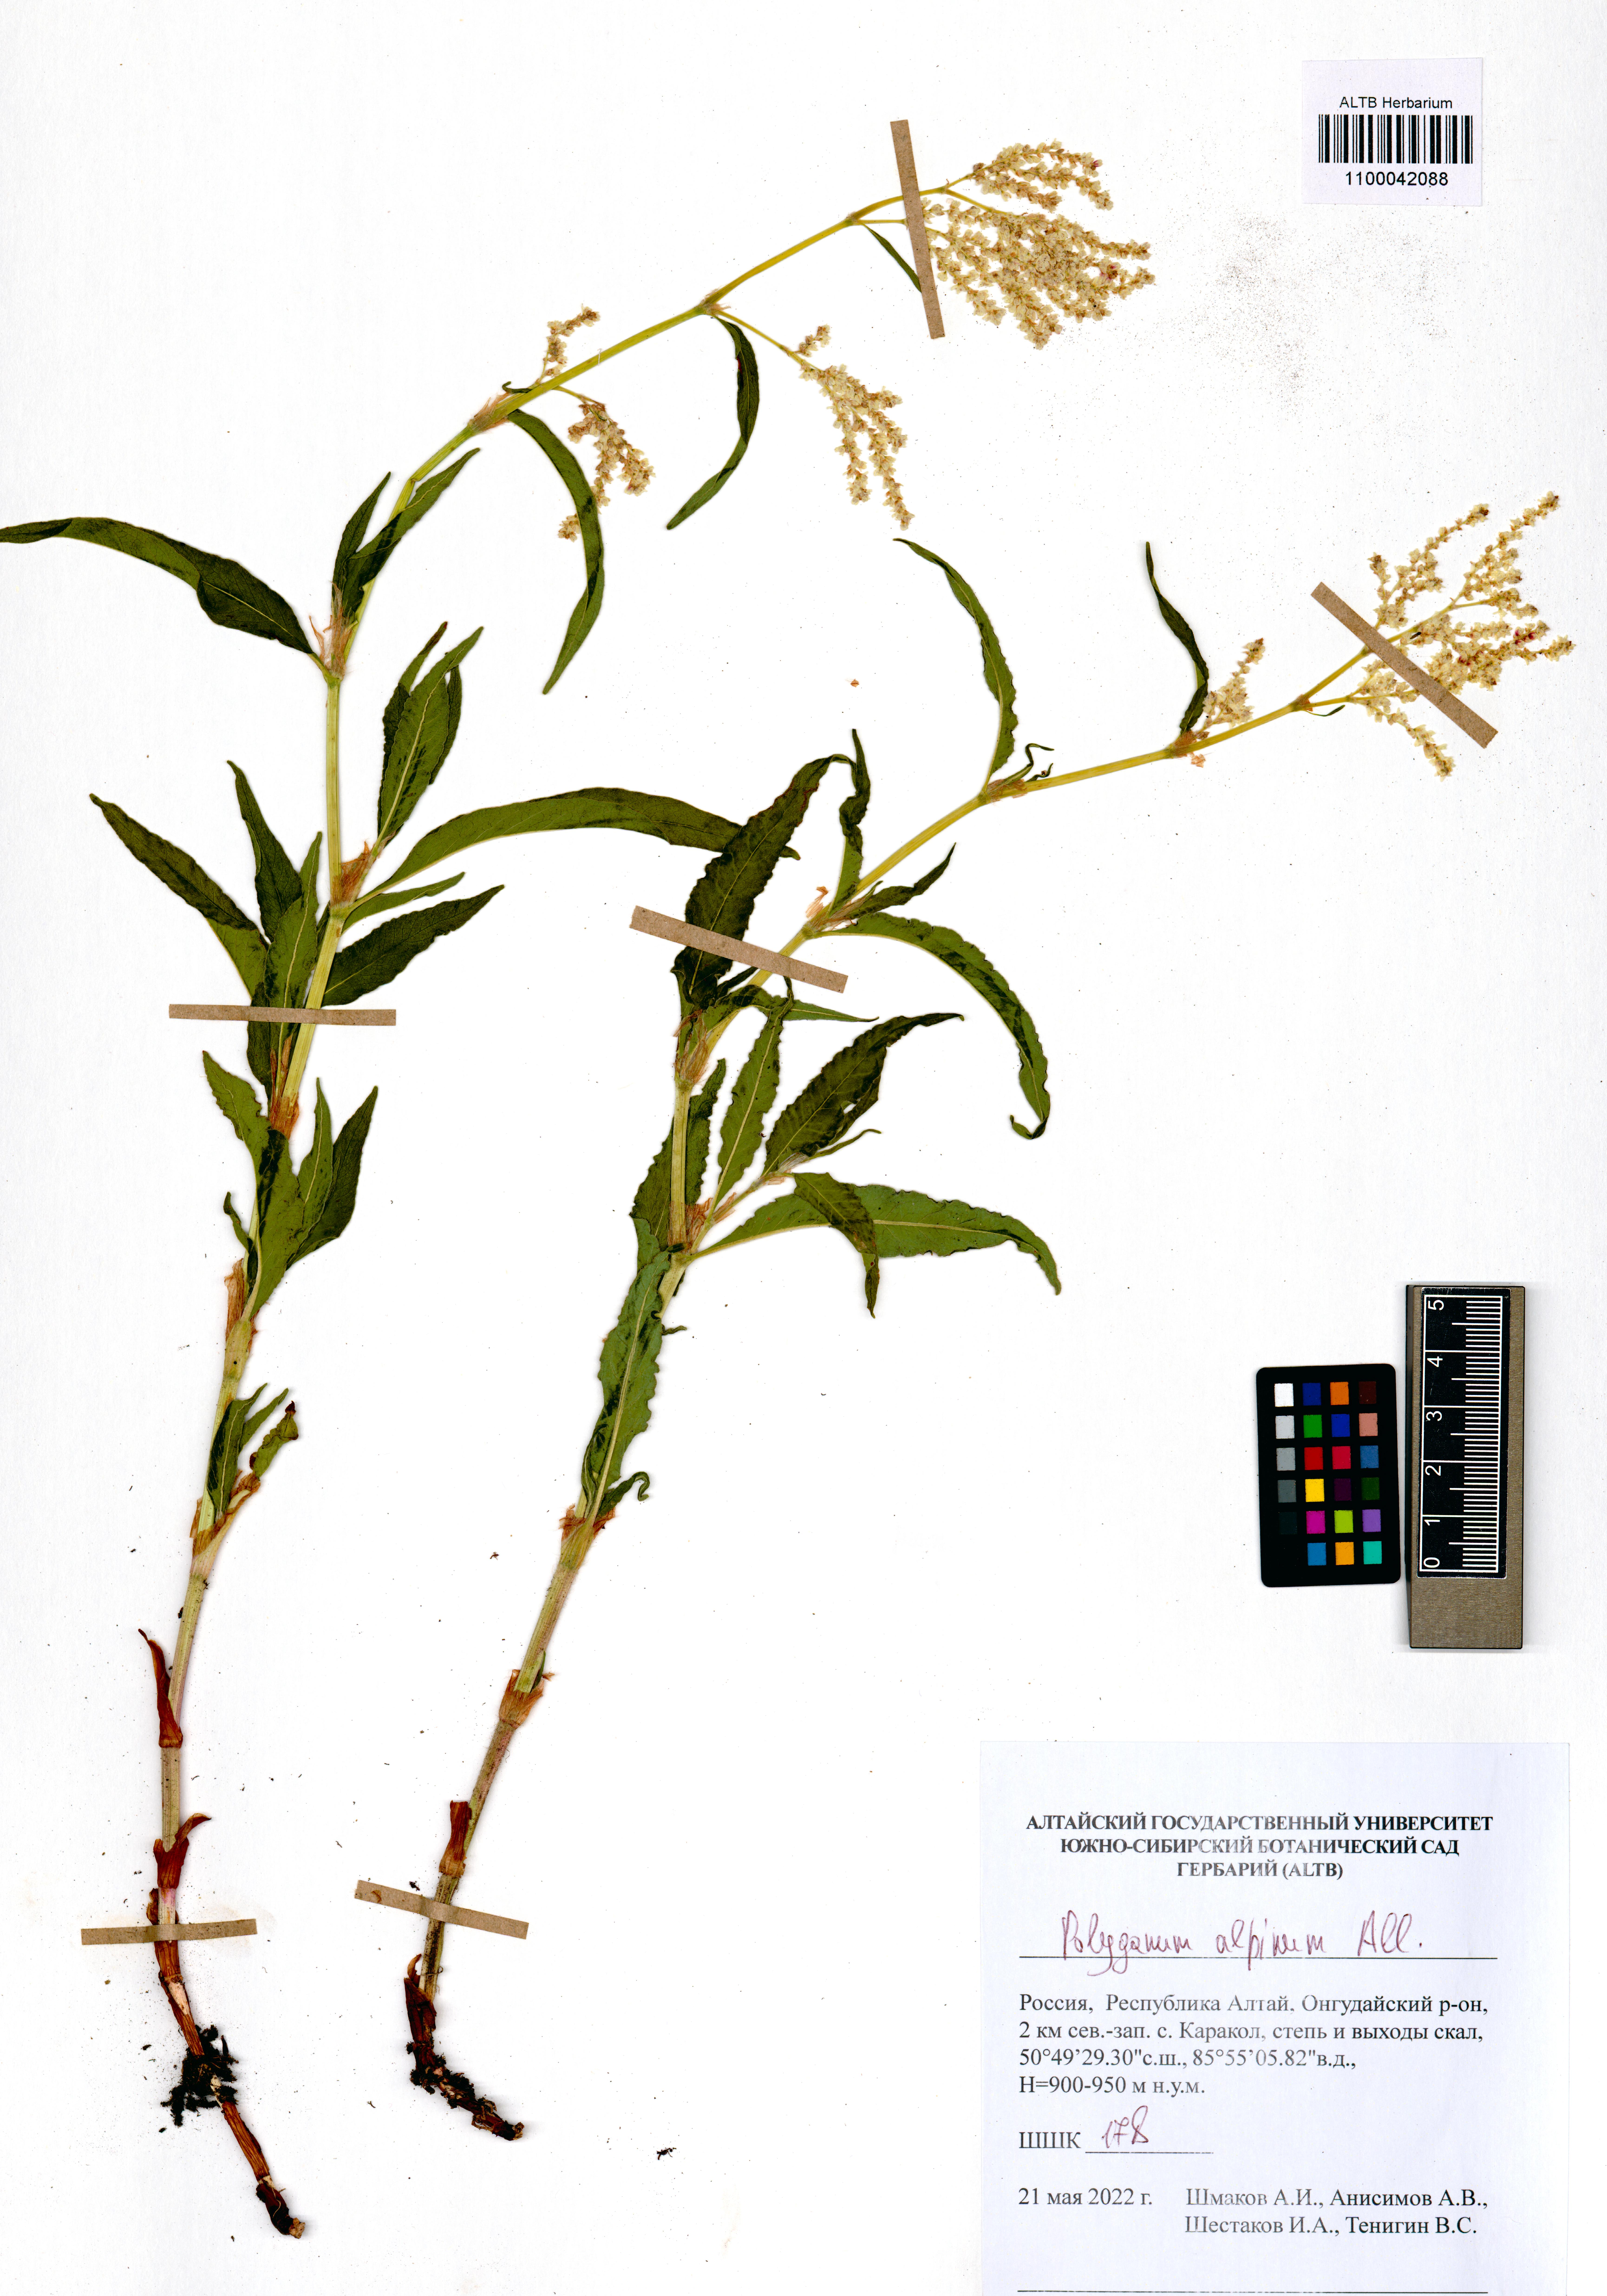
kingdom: Plantae
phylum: Tracheophyta
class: Magnoliopsida
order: Caryophyllales
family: Polygonaceae
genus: Koenigia
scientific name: Koenigia alpina
